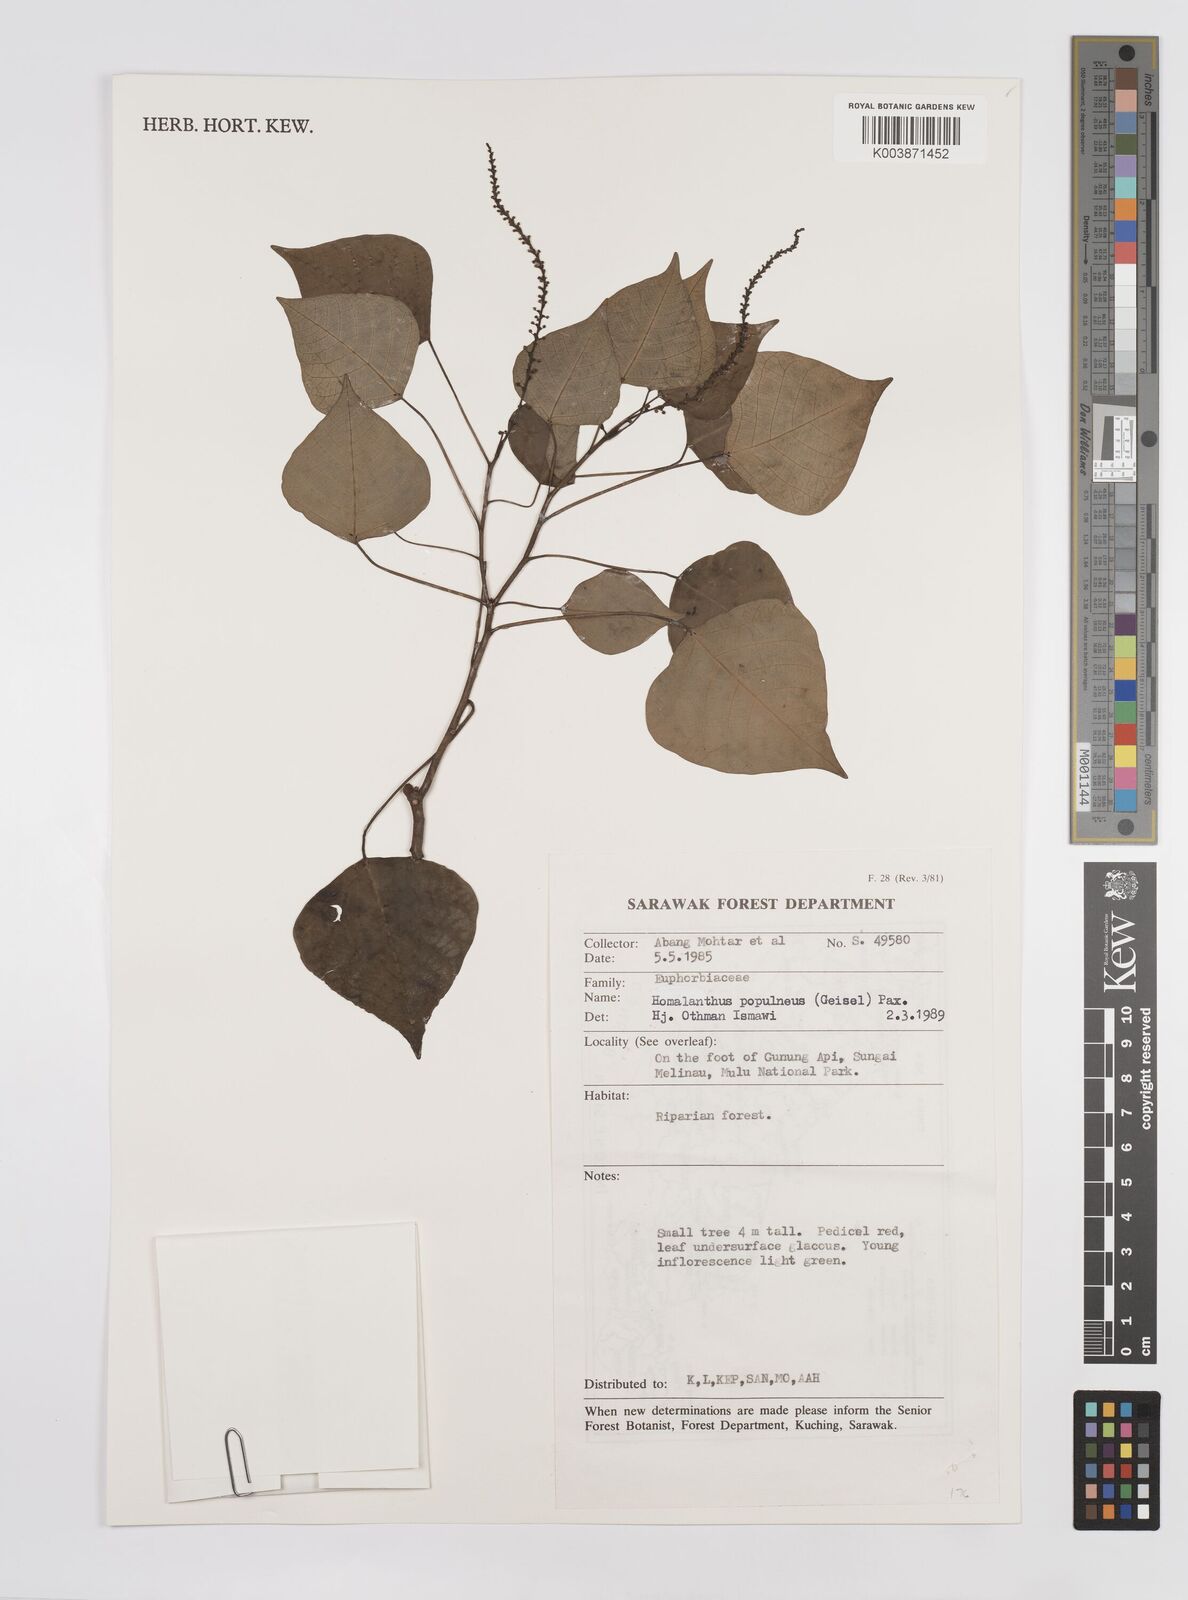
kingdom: Plantae
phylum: Tracheophyta
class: Magnoliopsida
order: Malpighiales
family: Euphorbiaceae
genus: Homalanthus
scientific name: Homalanthus populneus
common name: Spurge
